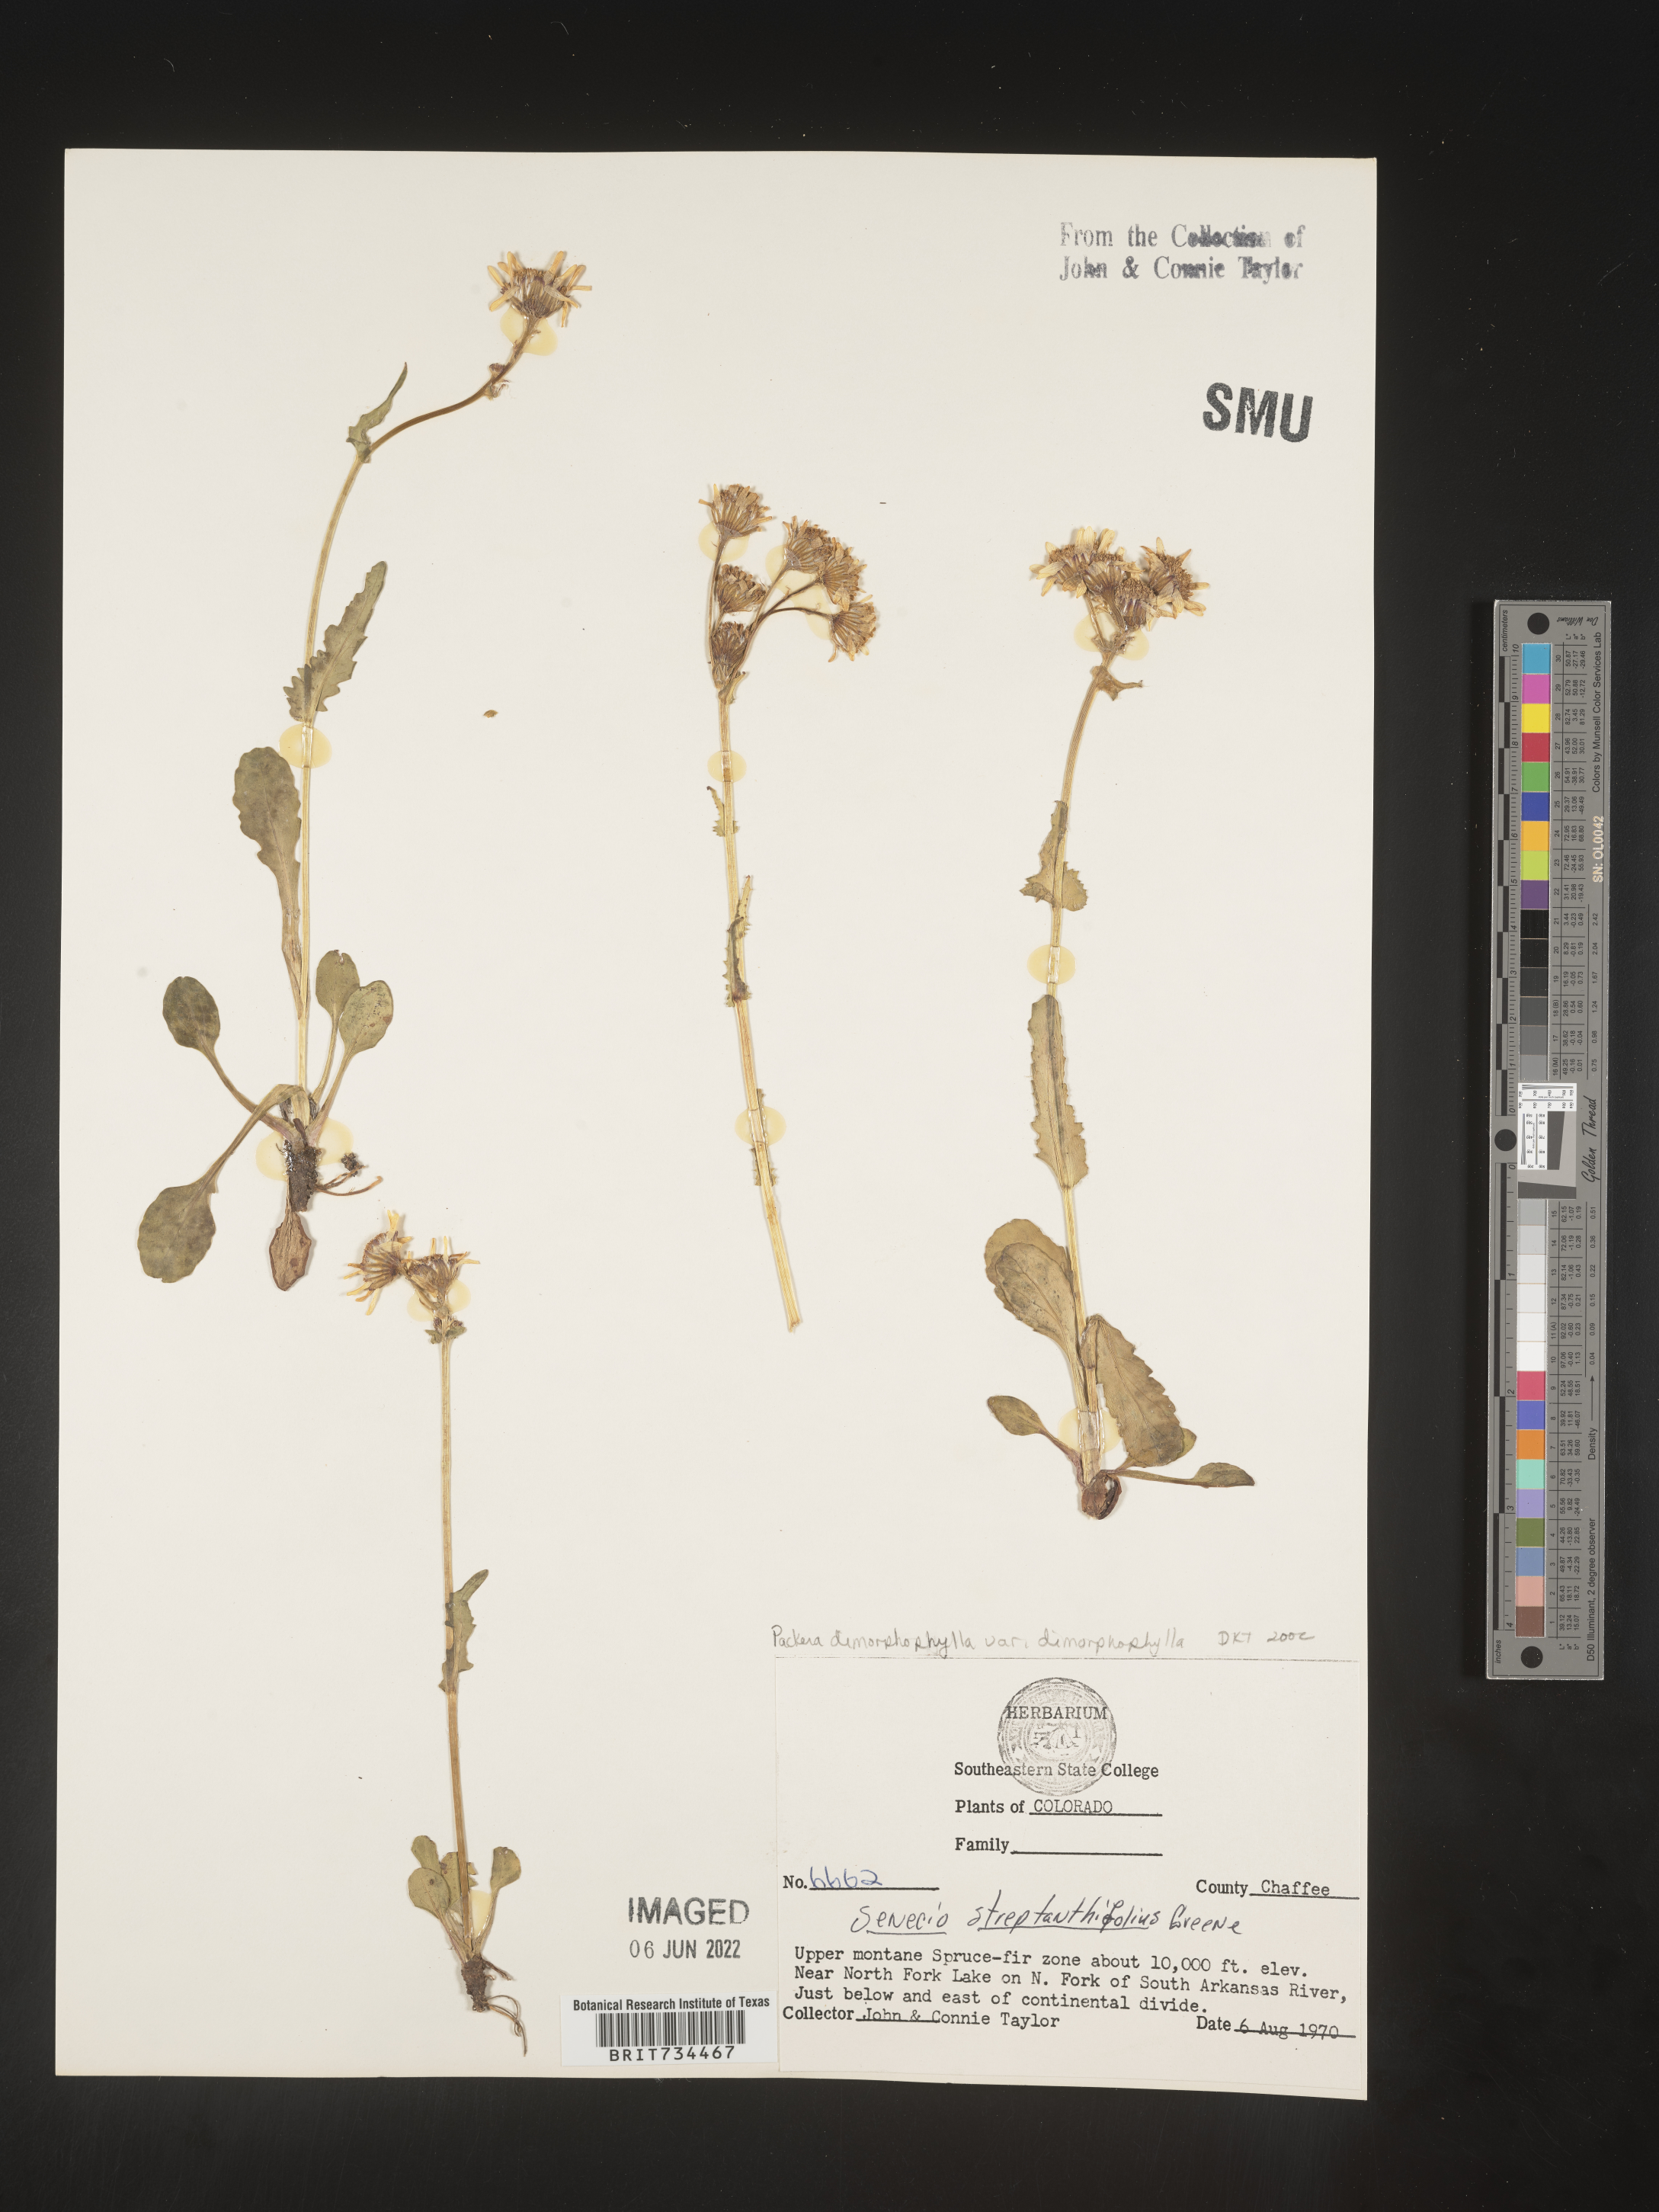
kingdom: Plantae
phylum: Tracheophyta
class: Magnoliopsida
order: Asterales
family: Asteraceae
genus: Packera
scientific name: Packera dimorphophylla
